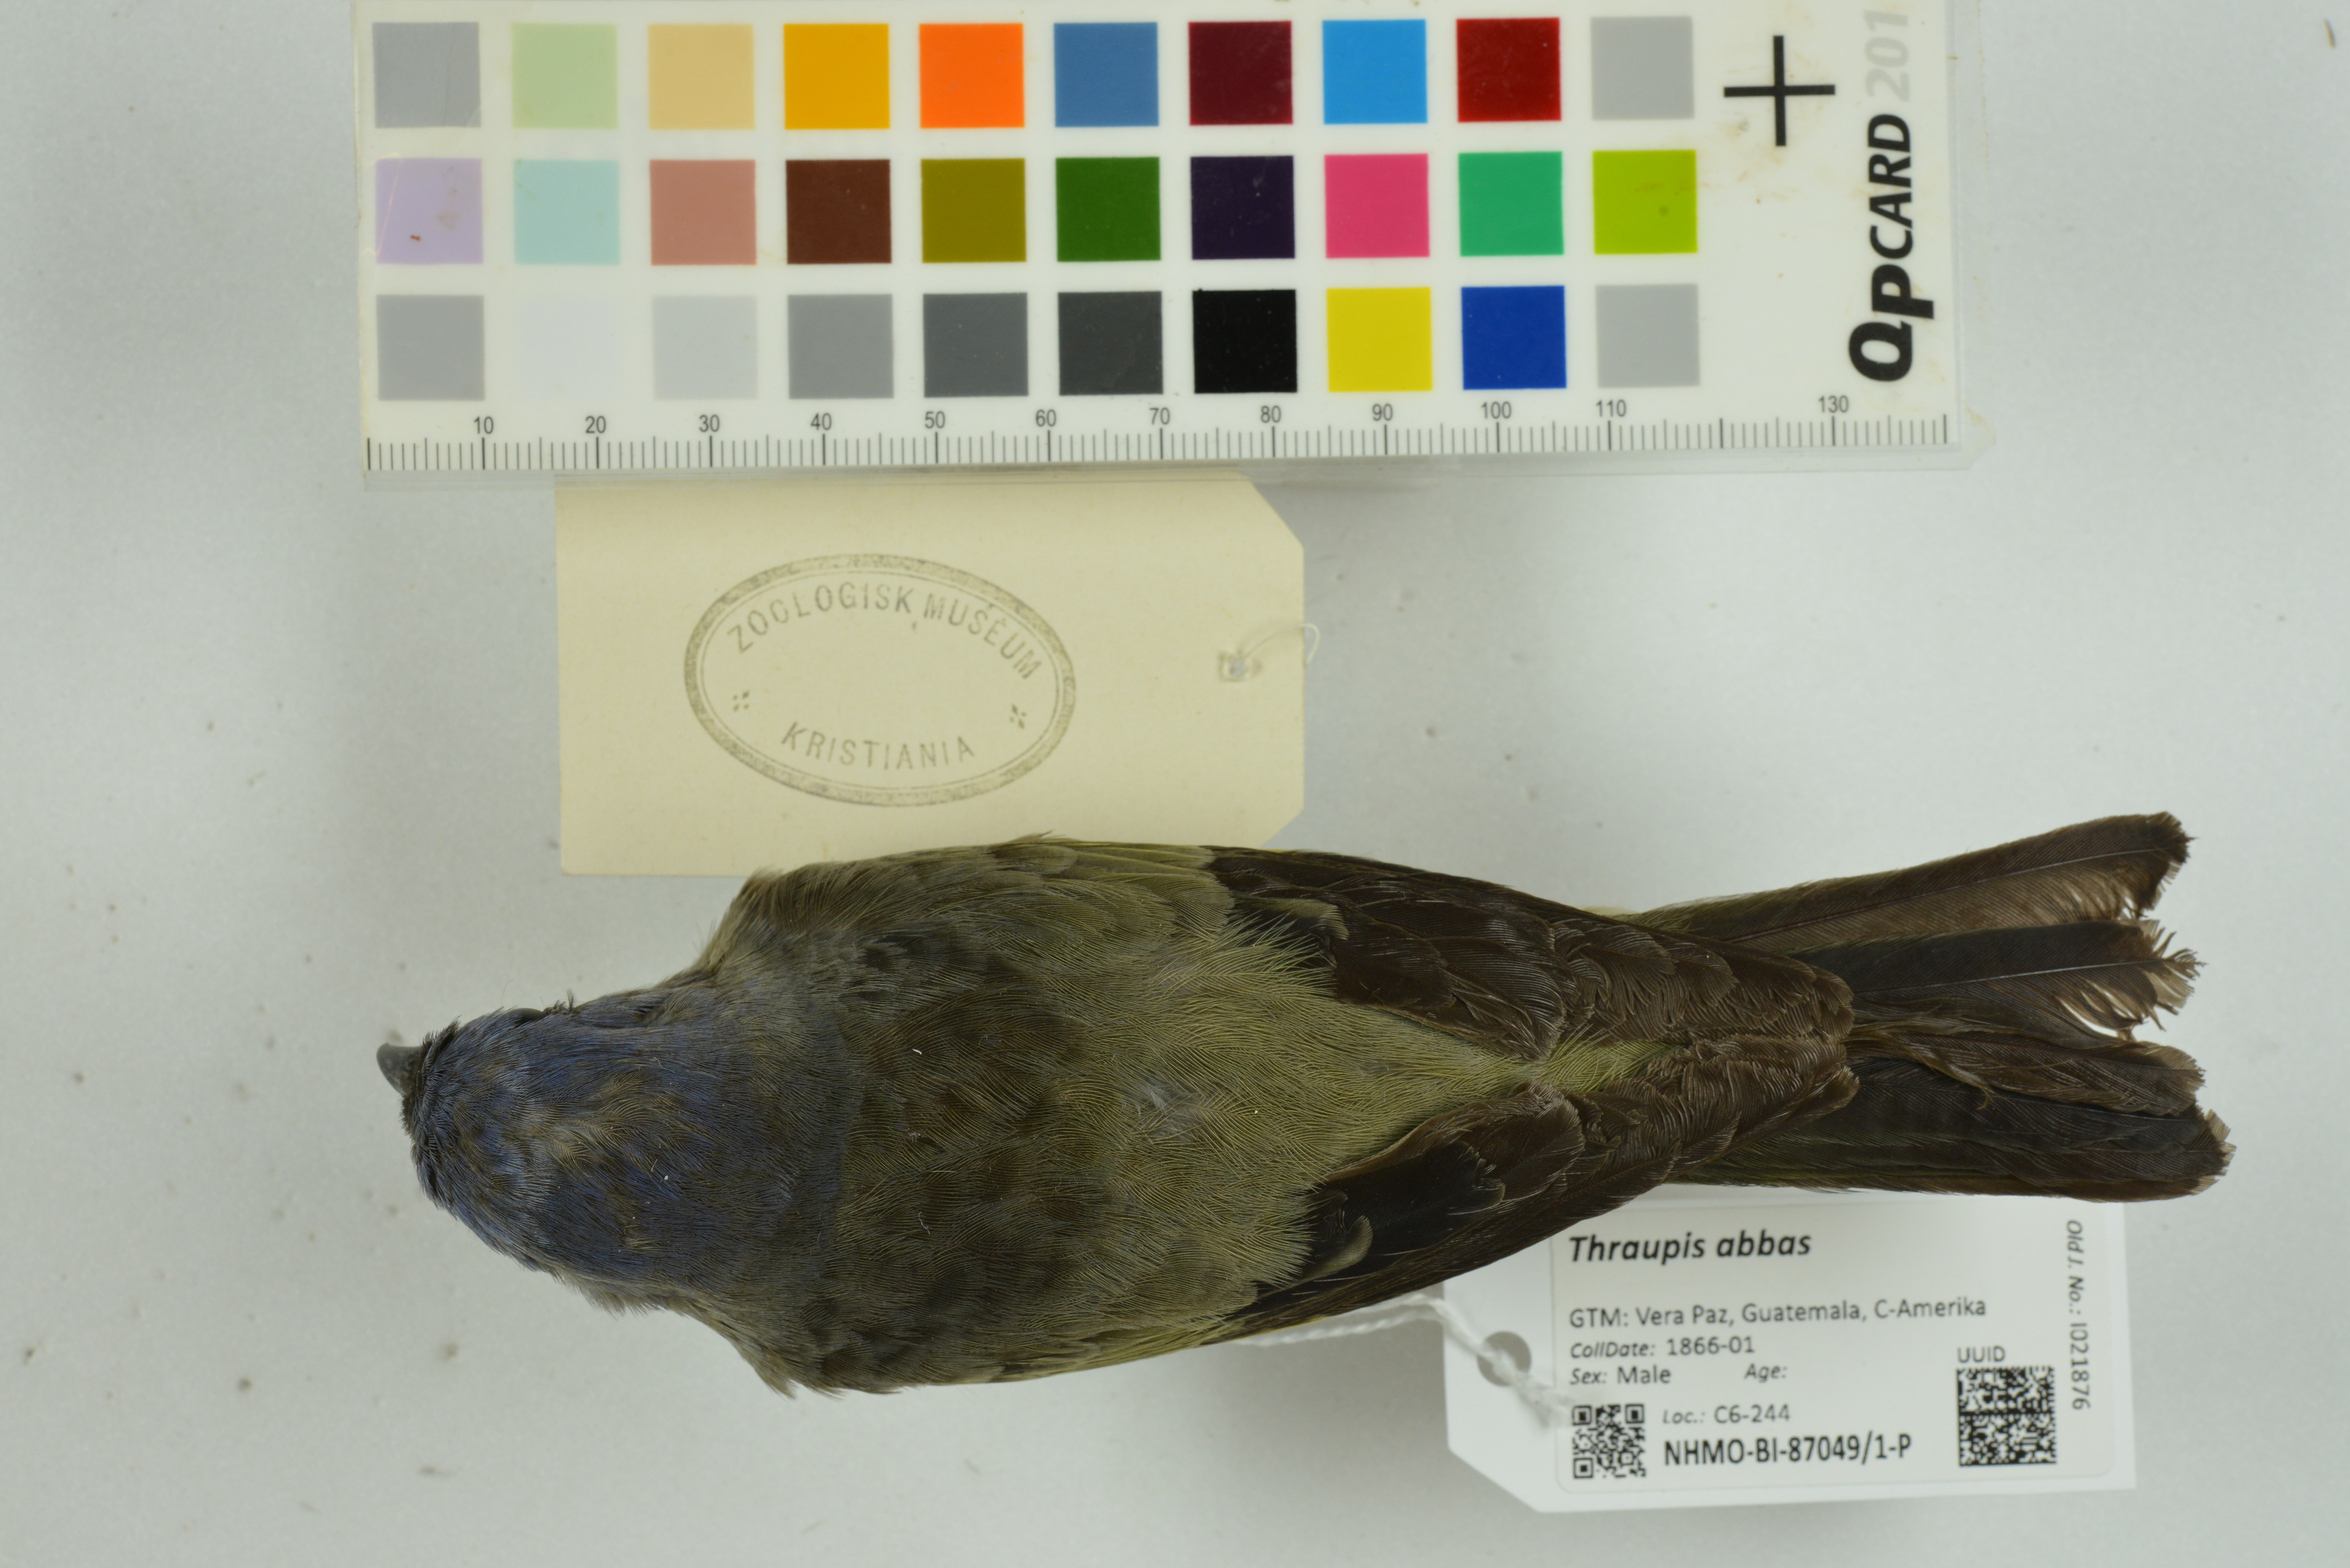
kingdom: Animalia
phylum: Chordata
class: Aves
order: Passeriformes
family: Thraupidae
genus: Thraupis
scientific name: Thraupis abbas
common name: Yellow-winged tanager
